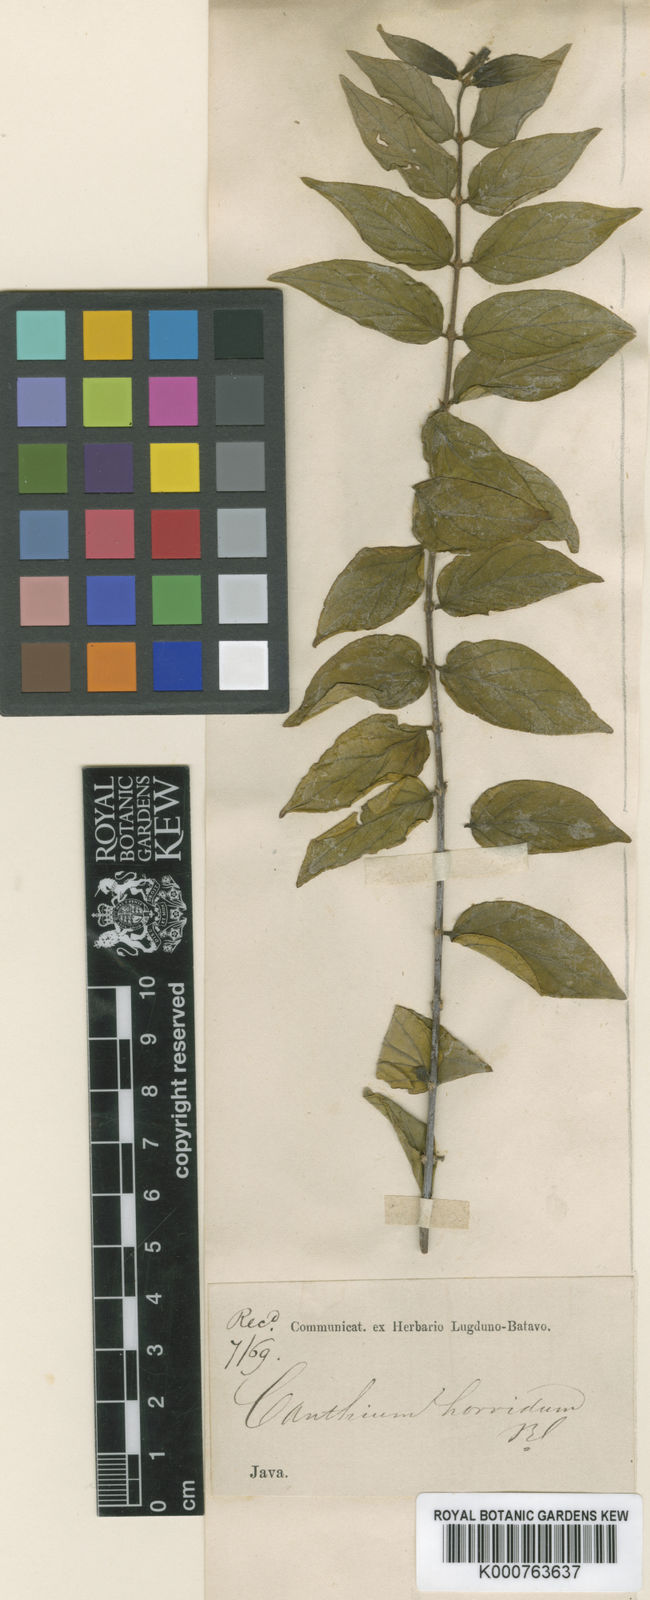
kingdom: Plantae
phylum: Tracheophyta
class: Magnoliopsida
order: Gentianales
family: Rubiaceae
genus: Canthium
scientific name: Canthium horridulum
